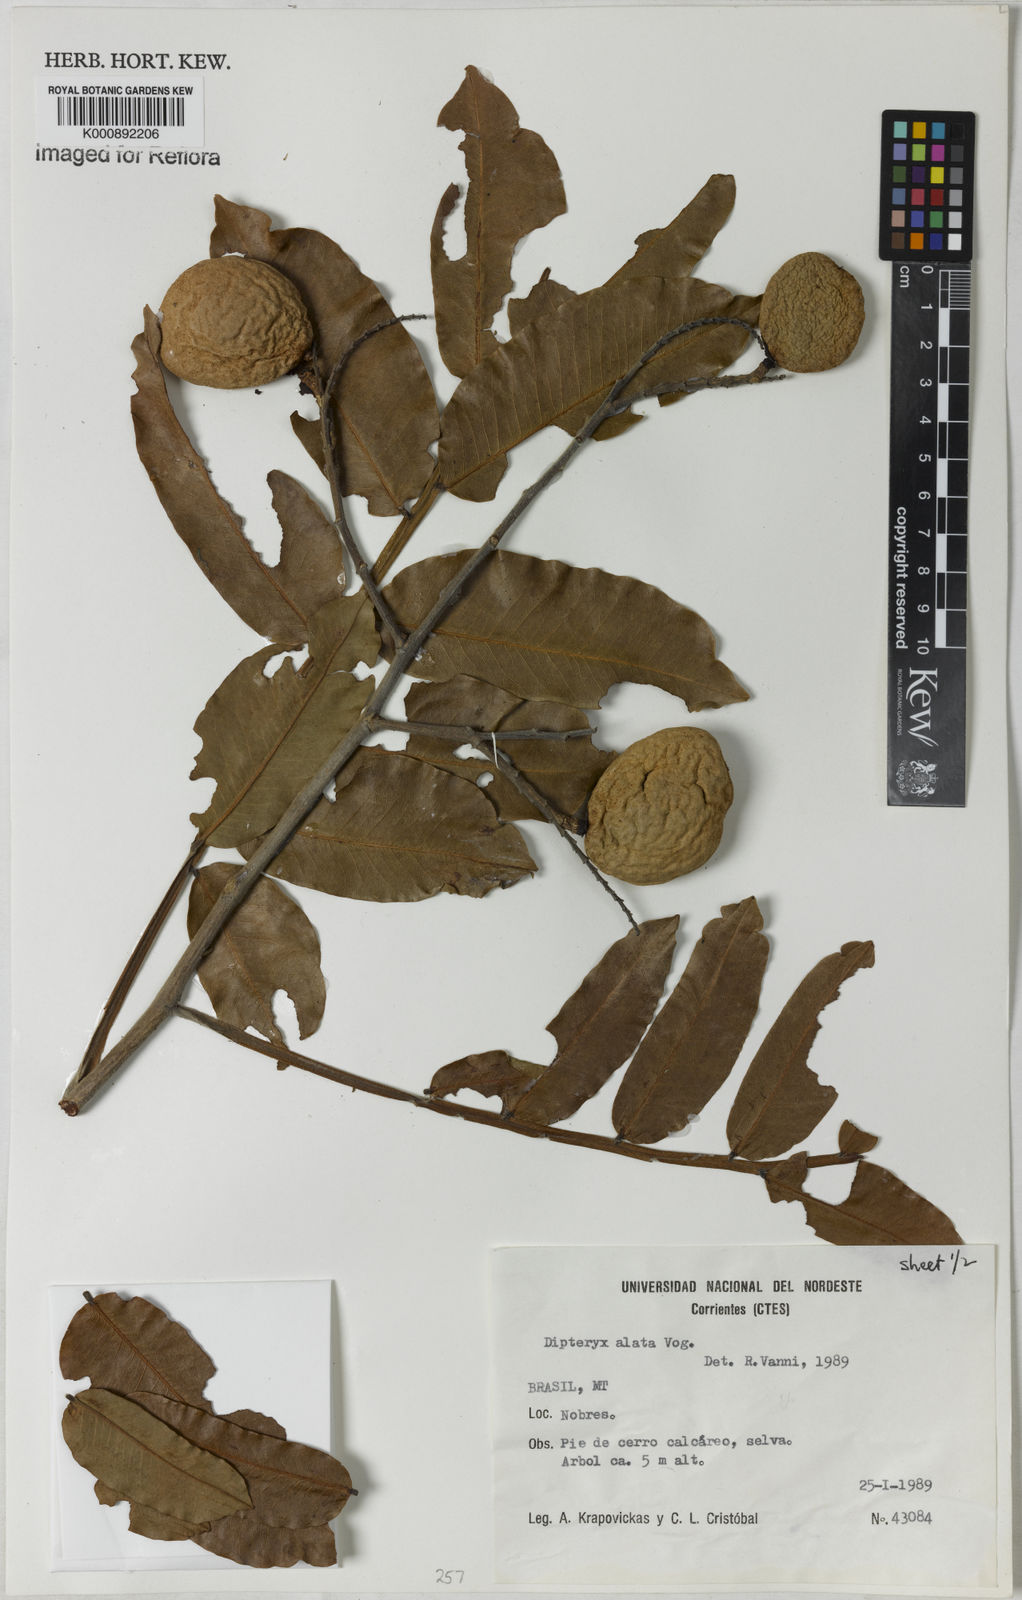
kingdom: Plantae
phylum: Tracheophyta
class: Magnoliopsida
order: Fabales
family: Fabaceae
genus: Dipteryx
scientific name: Dipteryx alata
